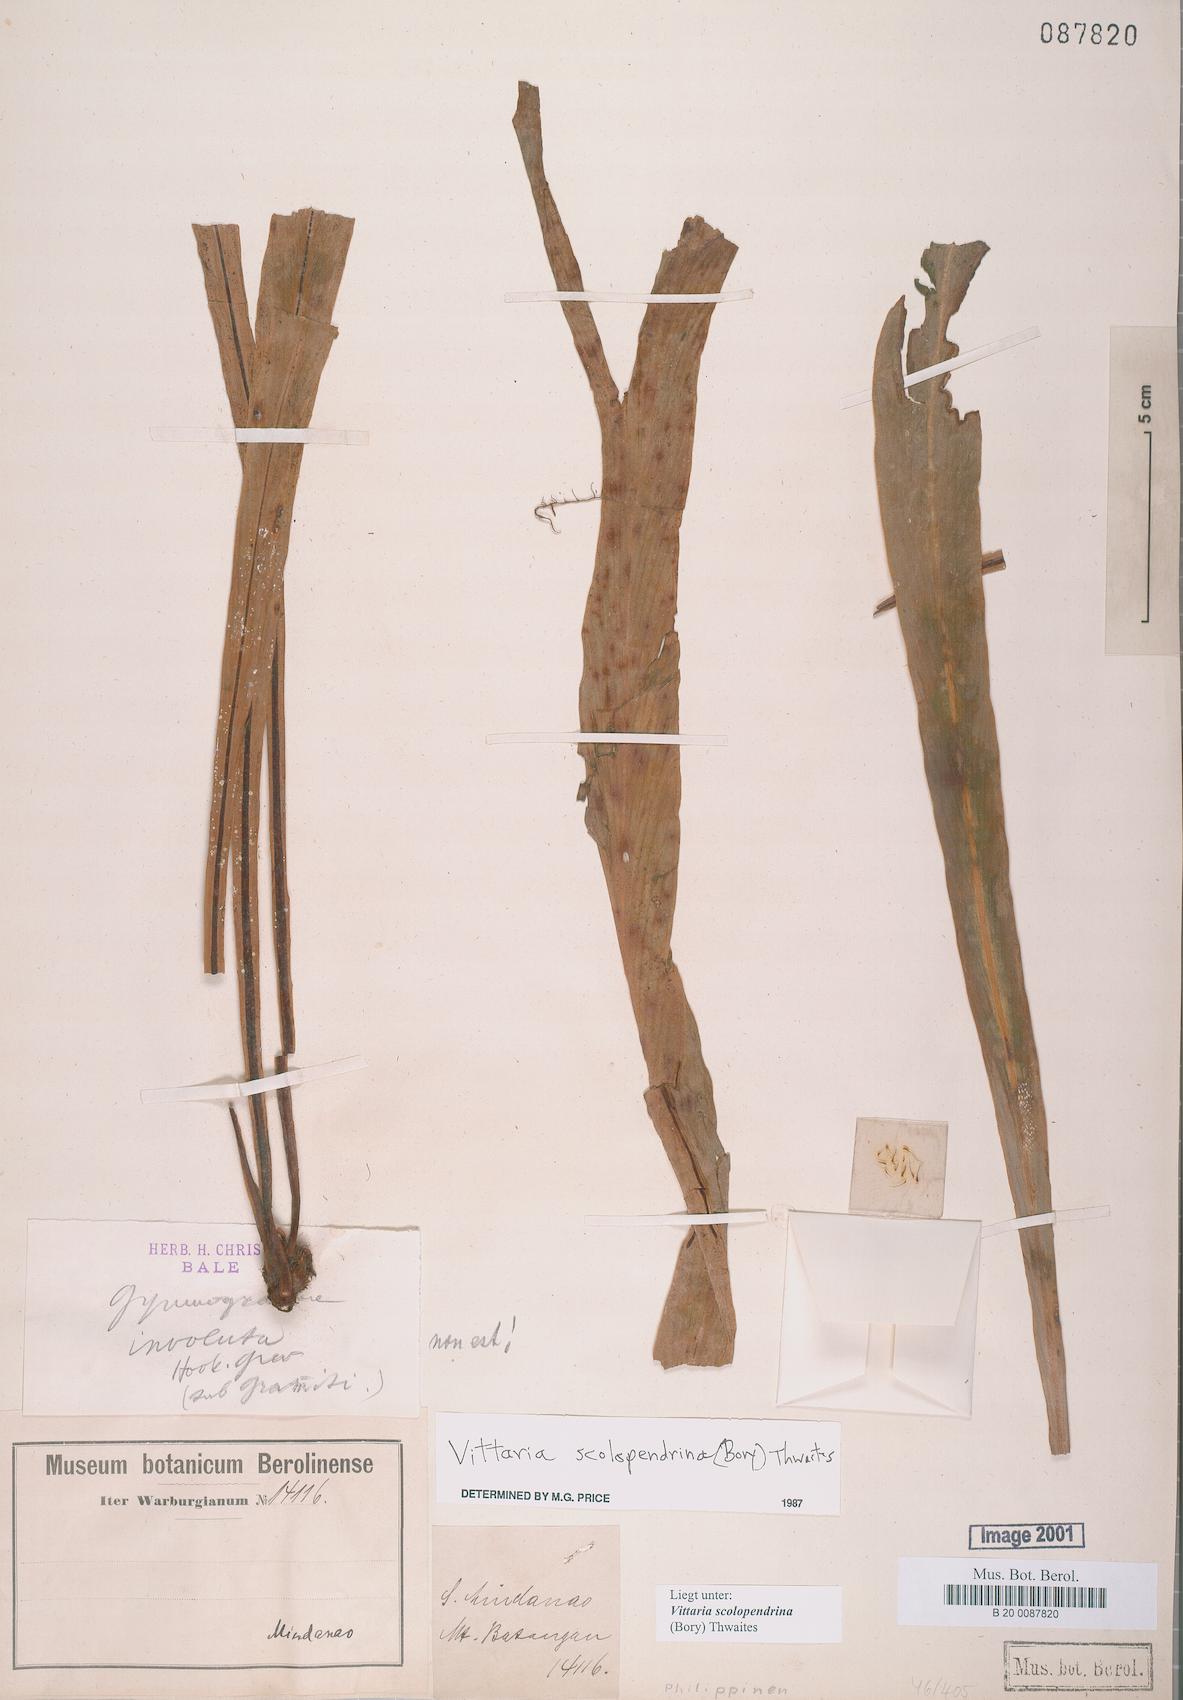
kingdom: Plantae
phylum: Tracheophyta
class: Polypodiopsida
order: Polypodiales
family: Pteridaceae
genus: Haplopteris
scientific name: Haplopteris scolopendrina
